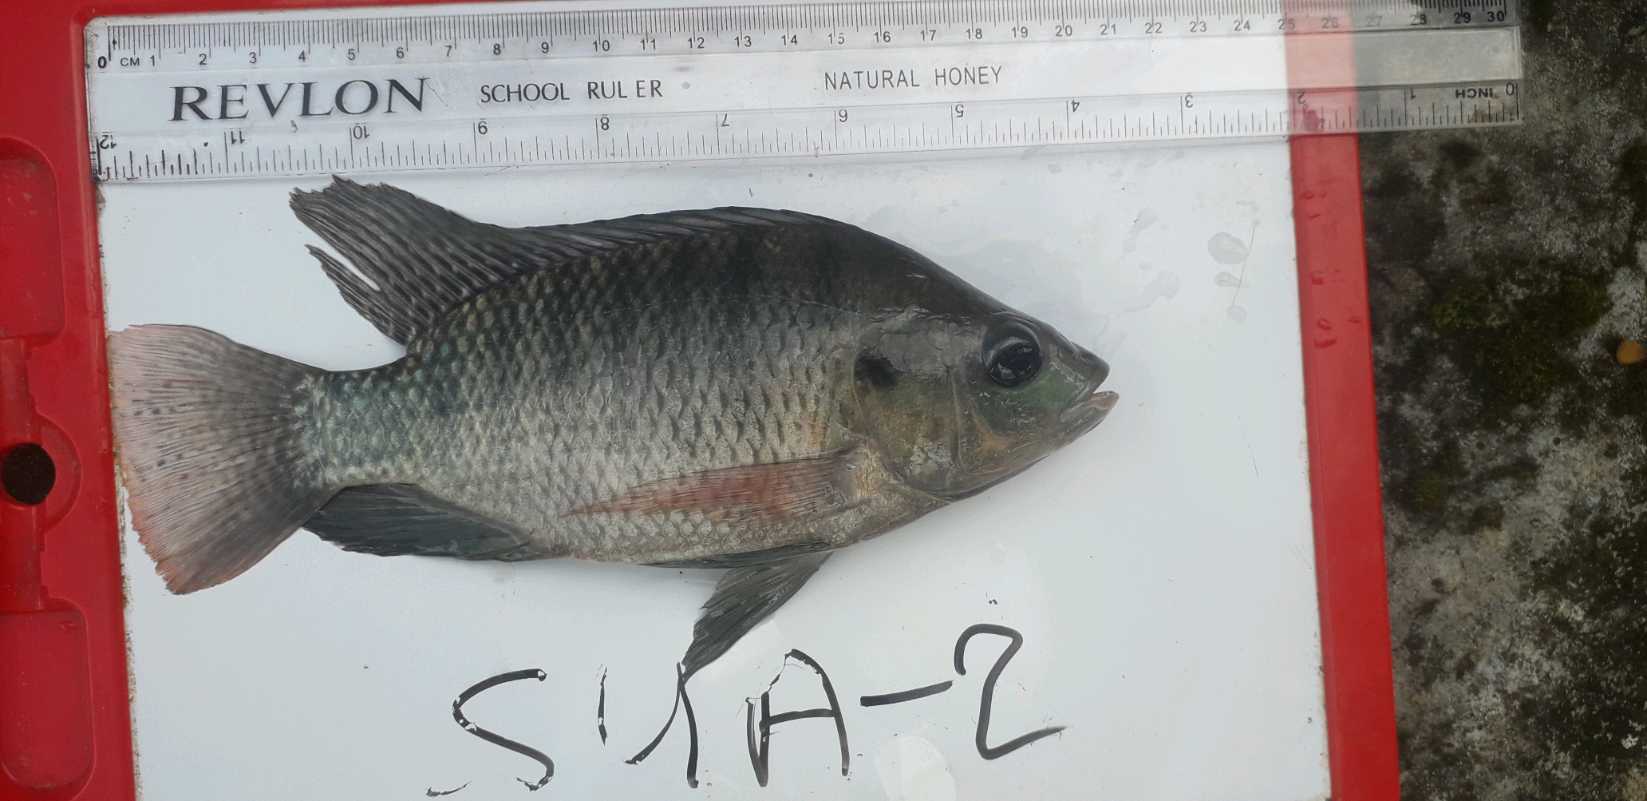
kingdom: Animalia
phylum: Chordata
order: Perciformes
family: Cichlidae
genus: Oreochromis
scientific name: Oreochromis
